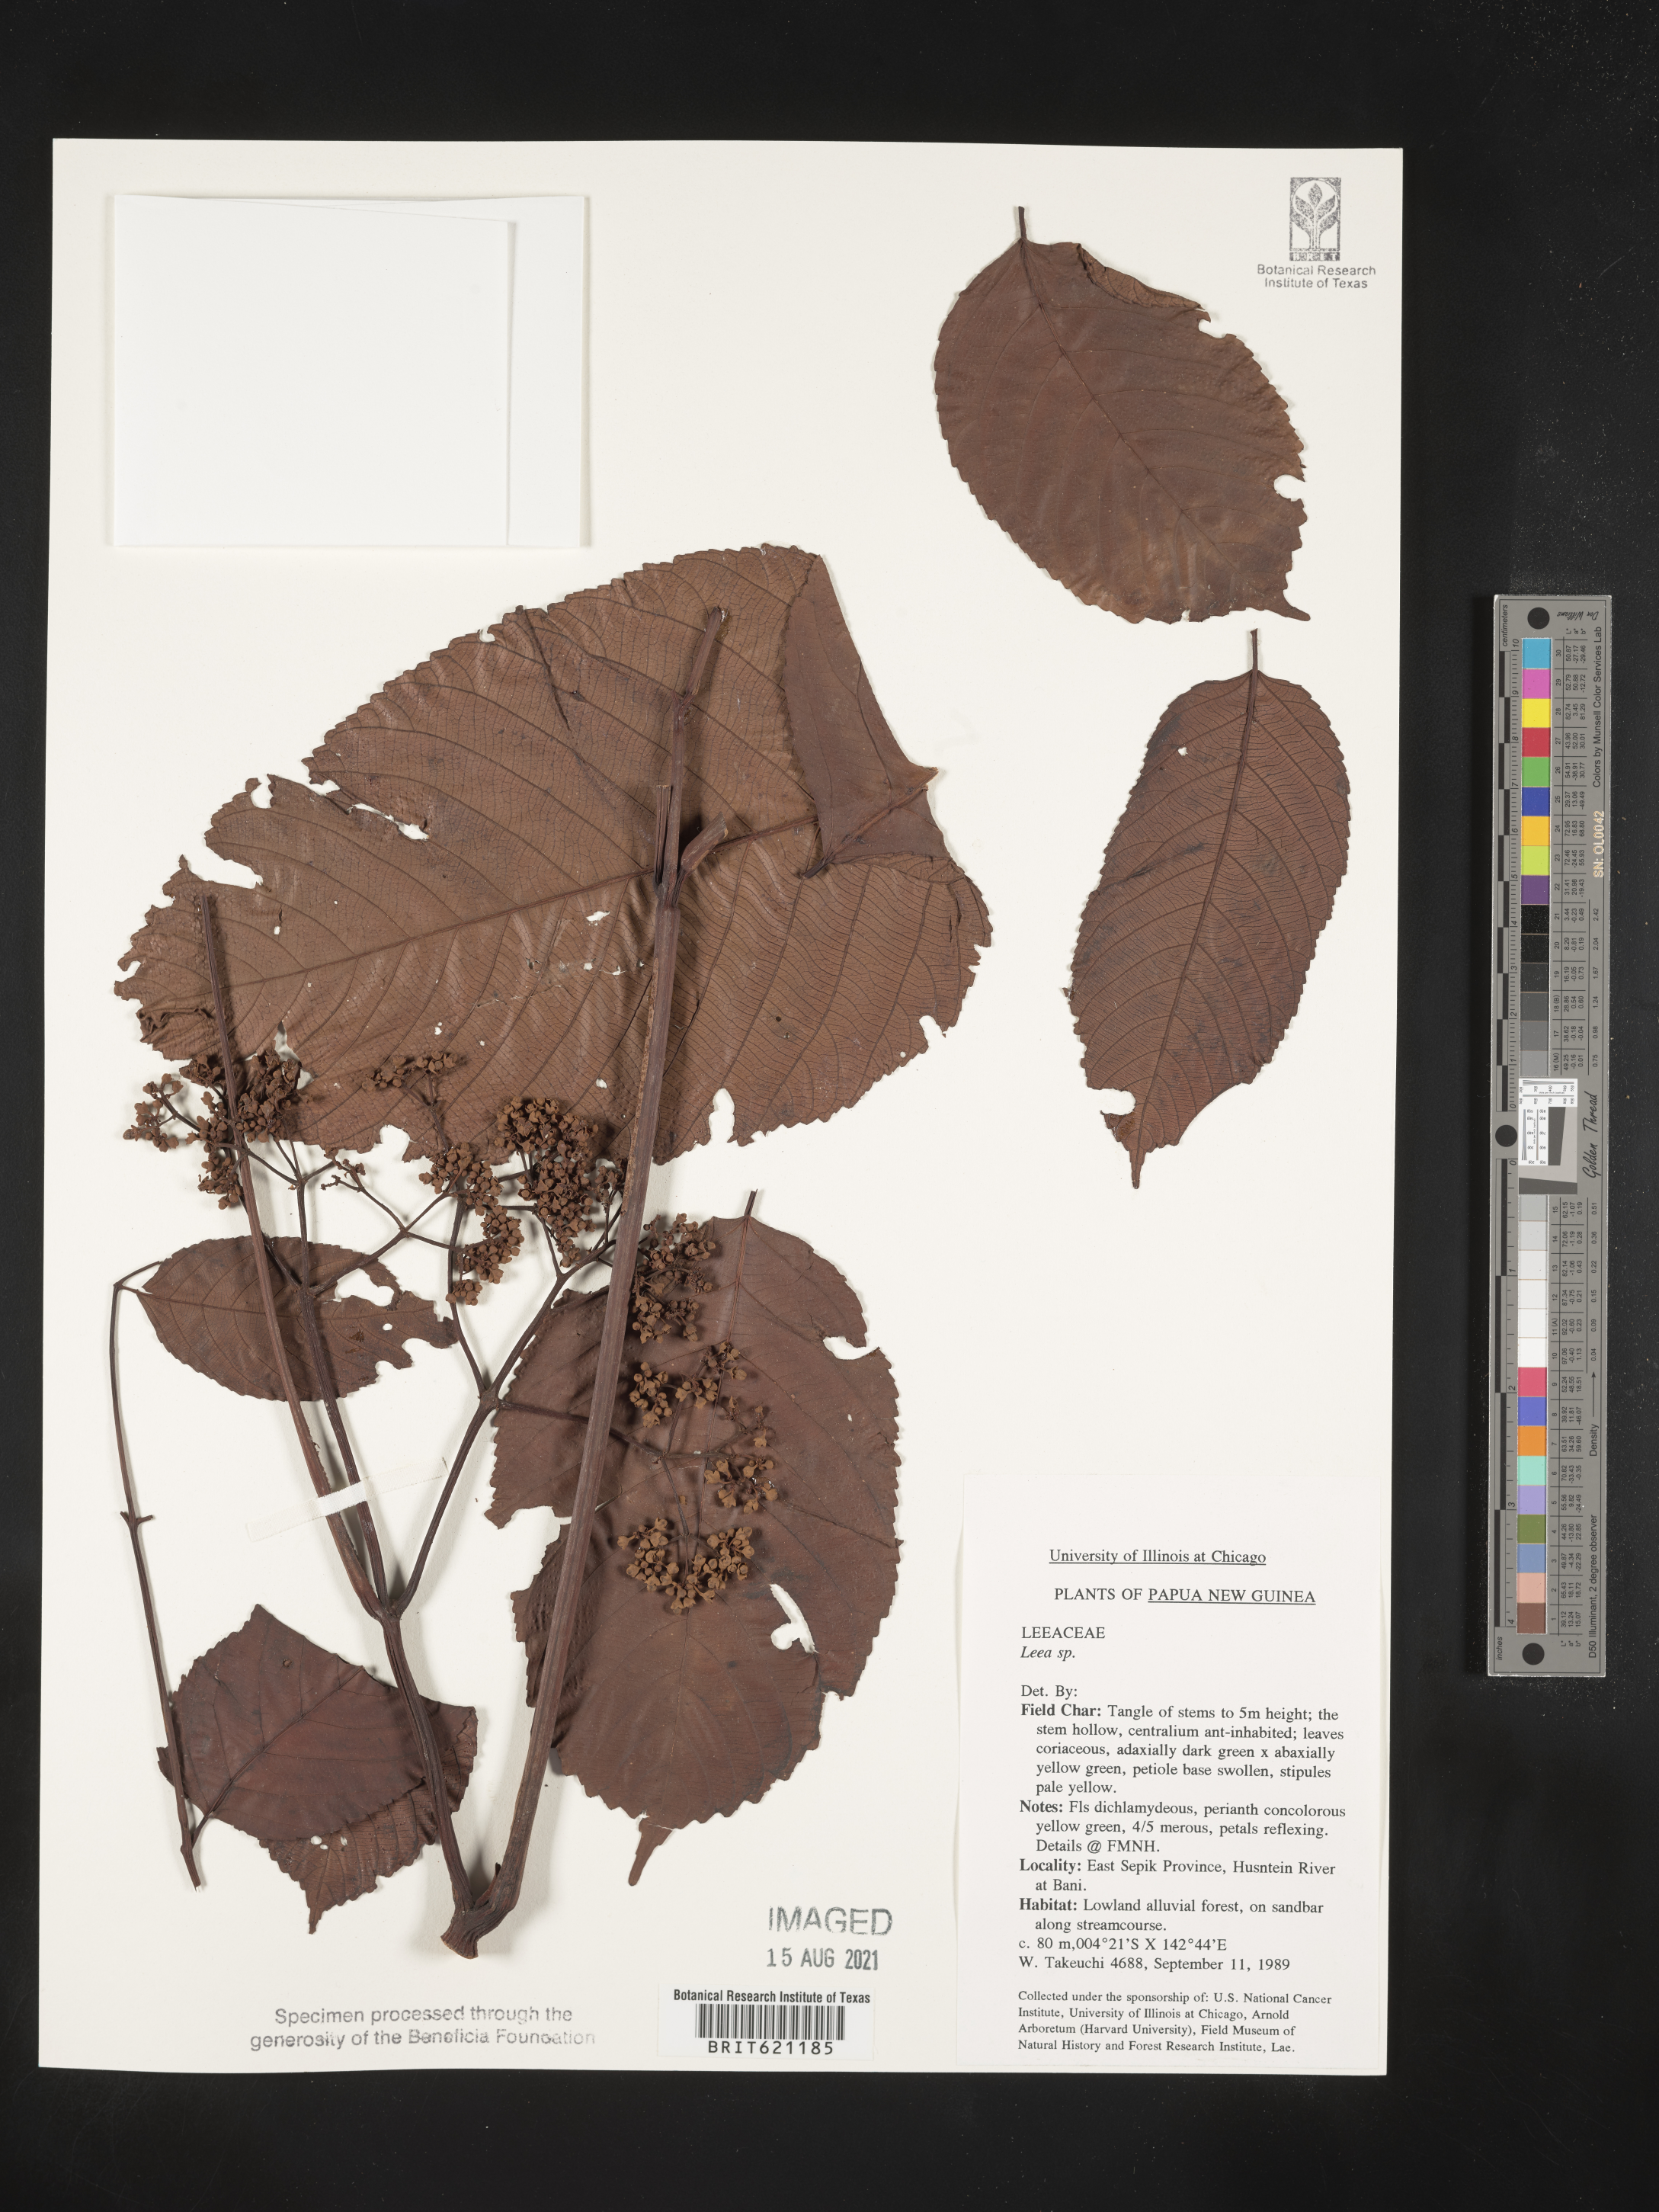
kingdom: Plantae
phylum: Tracheophyta
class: Magnoliopsida
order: Vitales
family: Vitaceae
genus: Leea
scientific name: Leea
